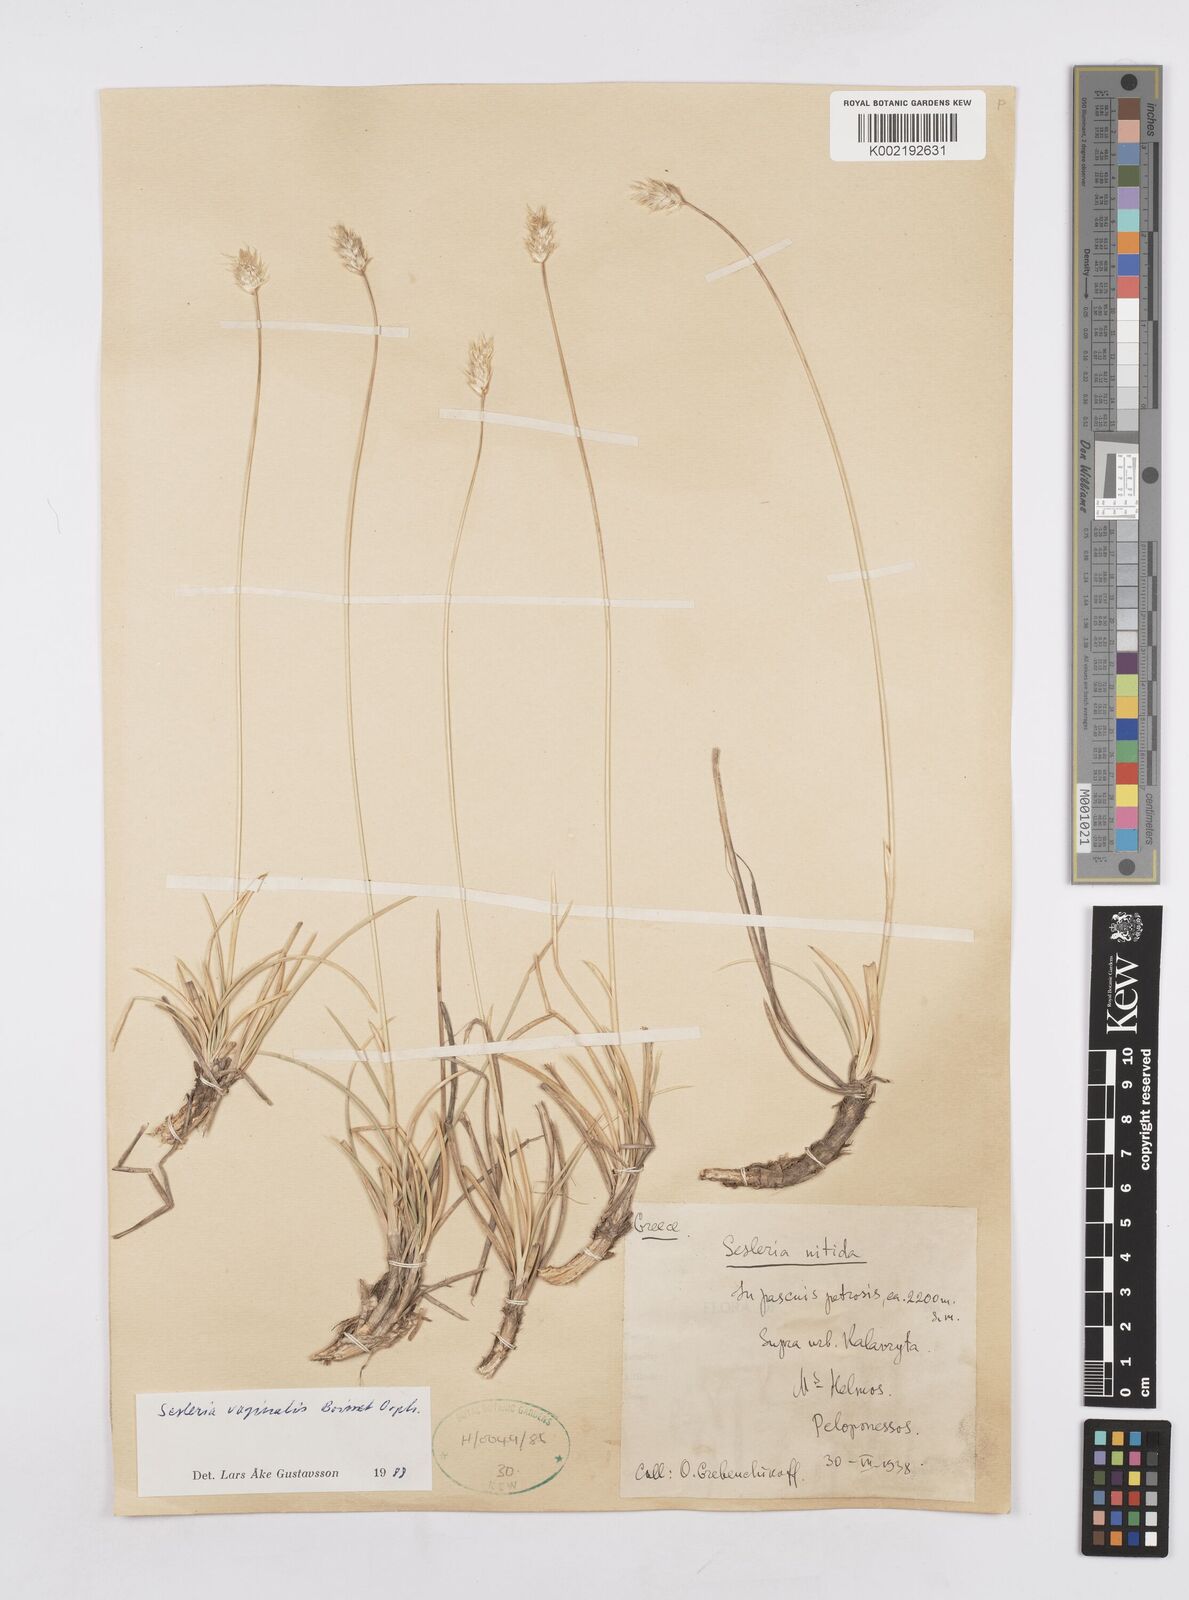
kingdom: Plantae
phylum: Tracheophyta
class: Liliopsida
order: Poales
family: Poaceae
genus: Sesleria
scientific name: Sesleria vaginalis
